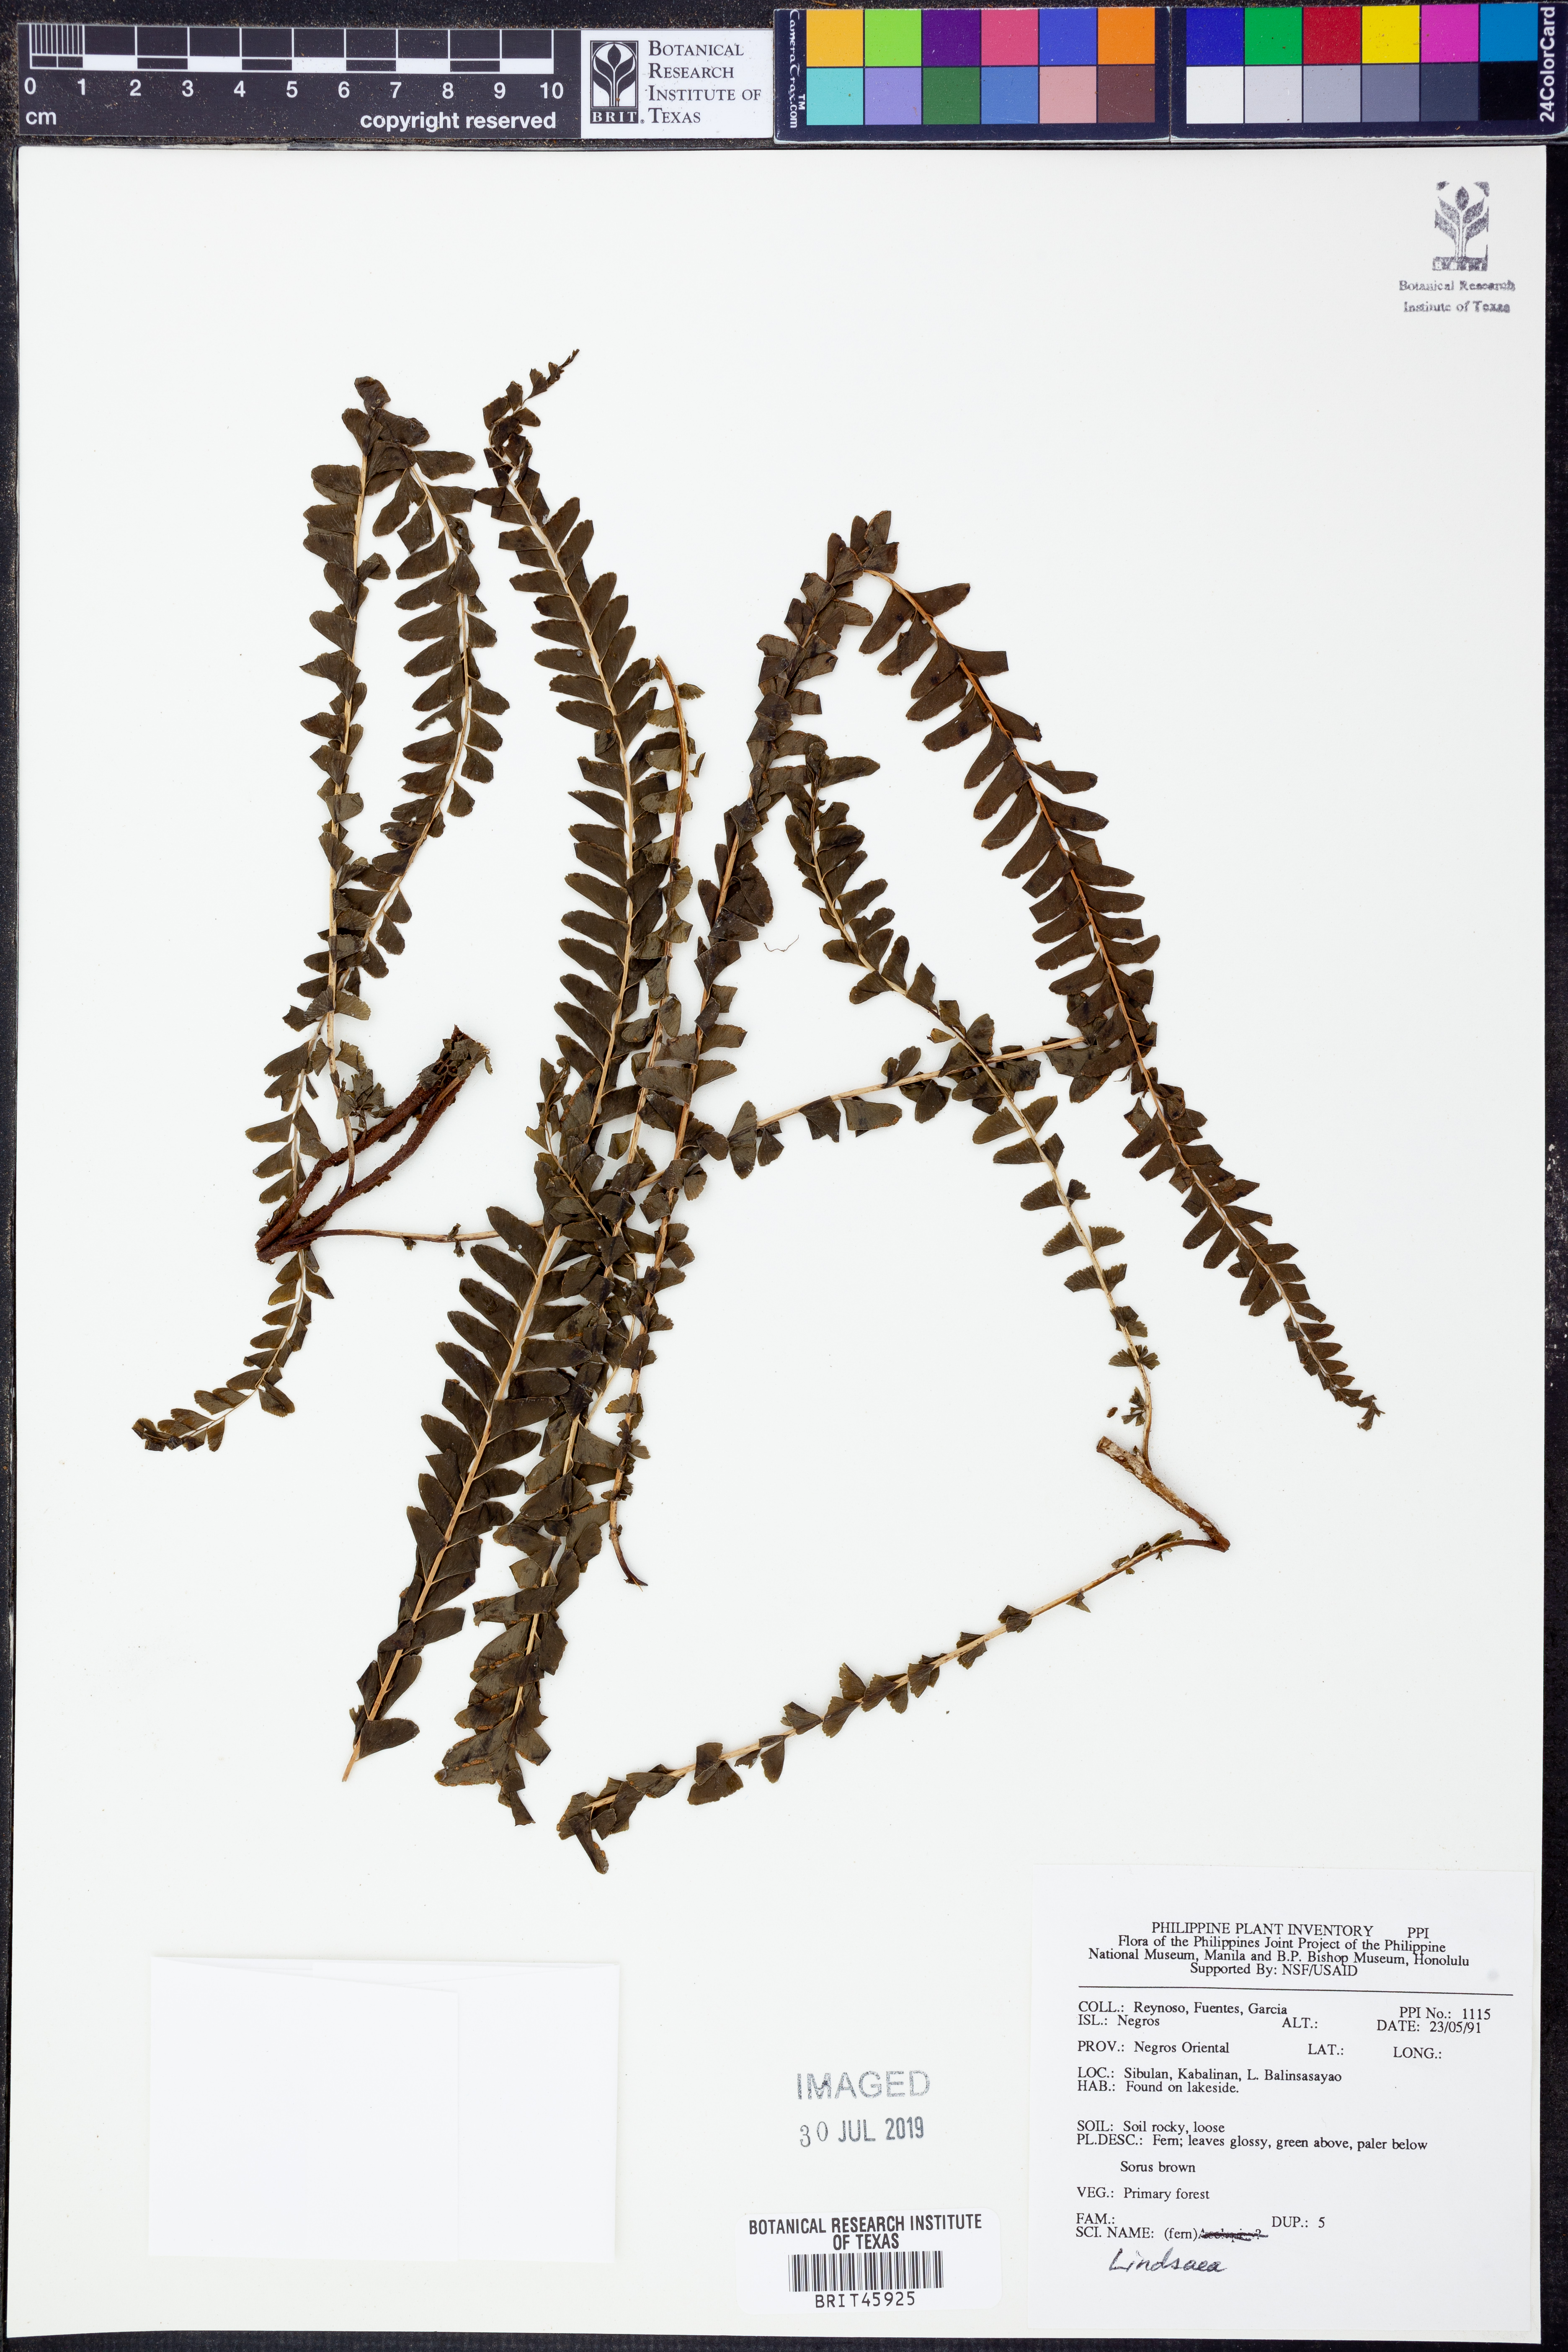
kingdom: Plantae
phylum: Tracheophyta
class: Polypodiopsida
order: Polypodiales
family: Lindsaeaceae
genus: Lindsaea
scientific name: Lindsaea
